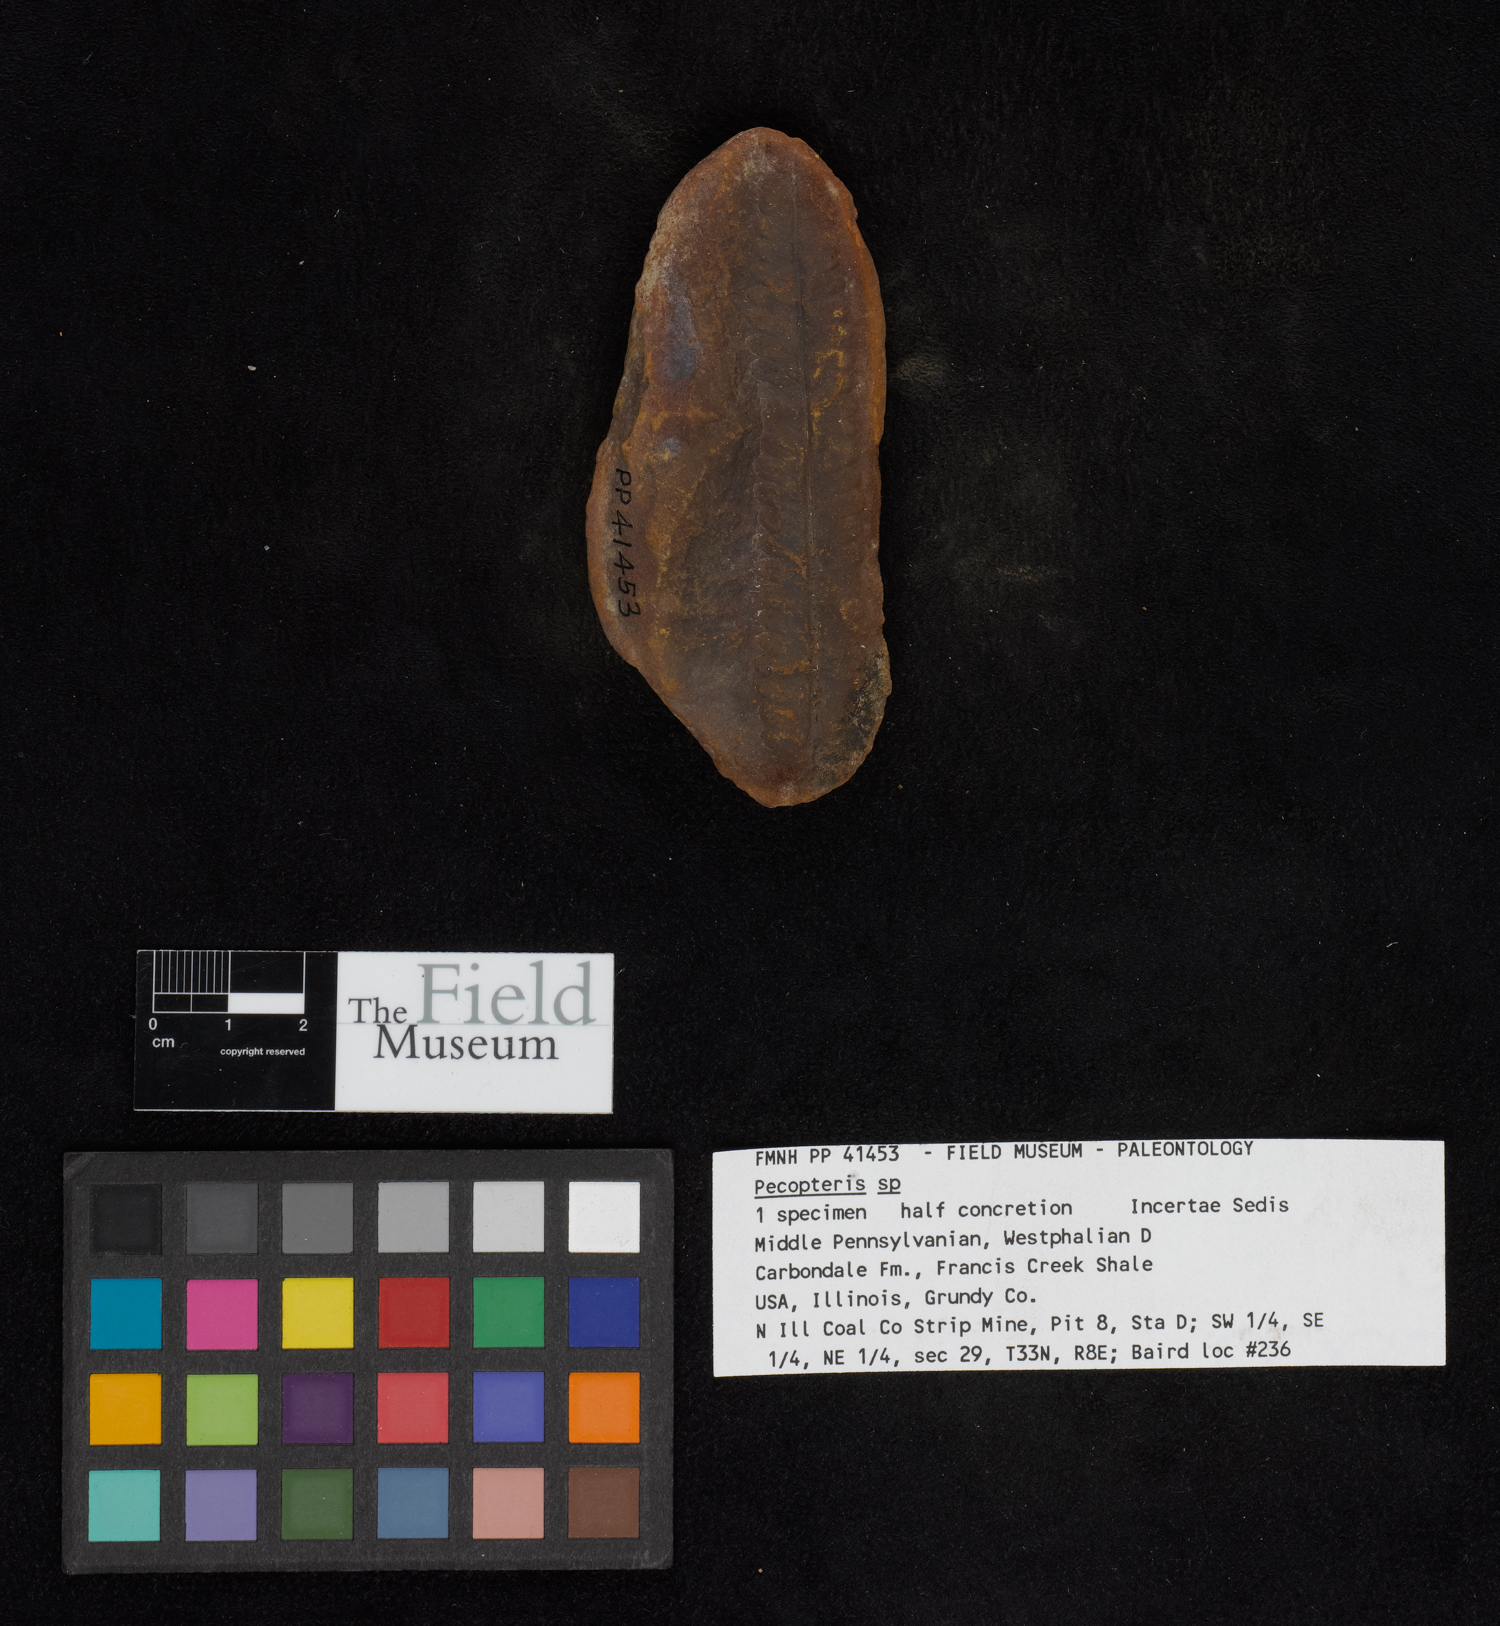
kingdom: Plantae
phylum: Tracheophyta
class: Polypodiopsida
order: Marattiales
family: Asterothecaceae
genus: Pecopteris
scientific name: Pecopteris
